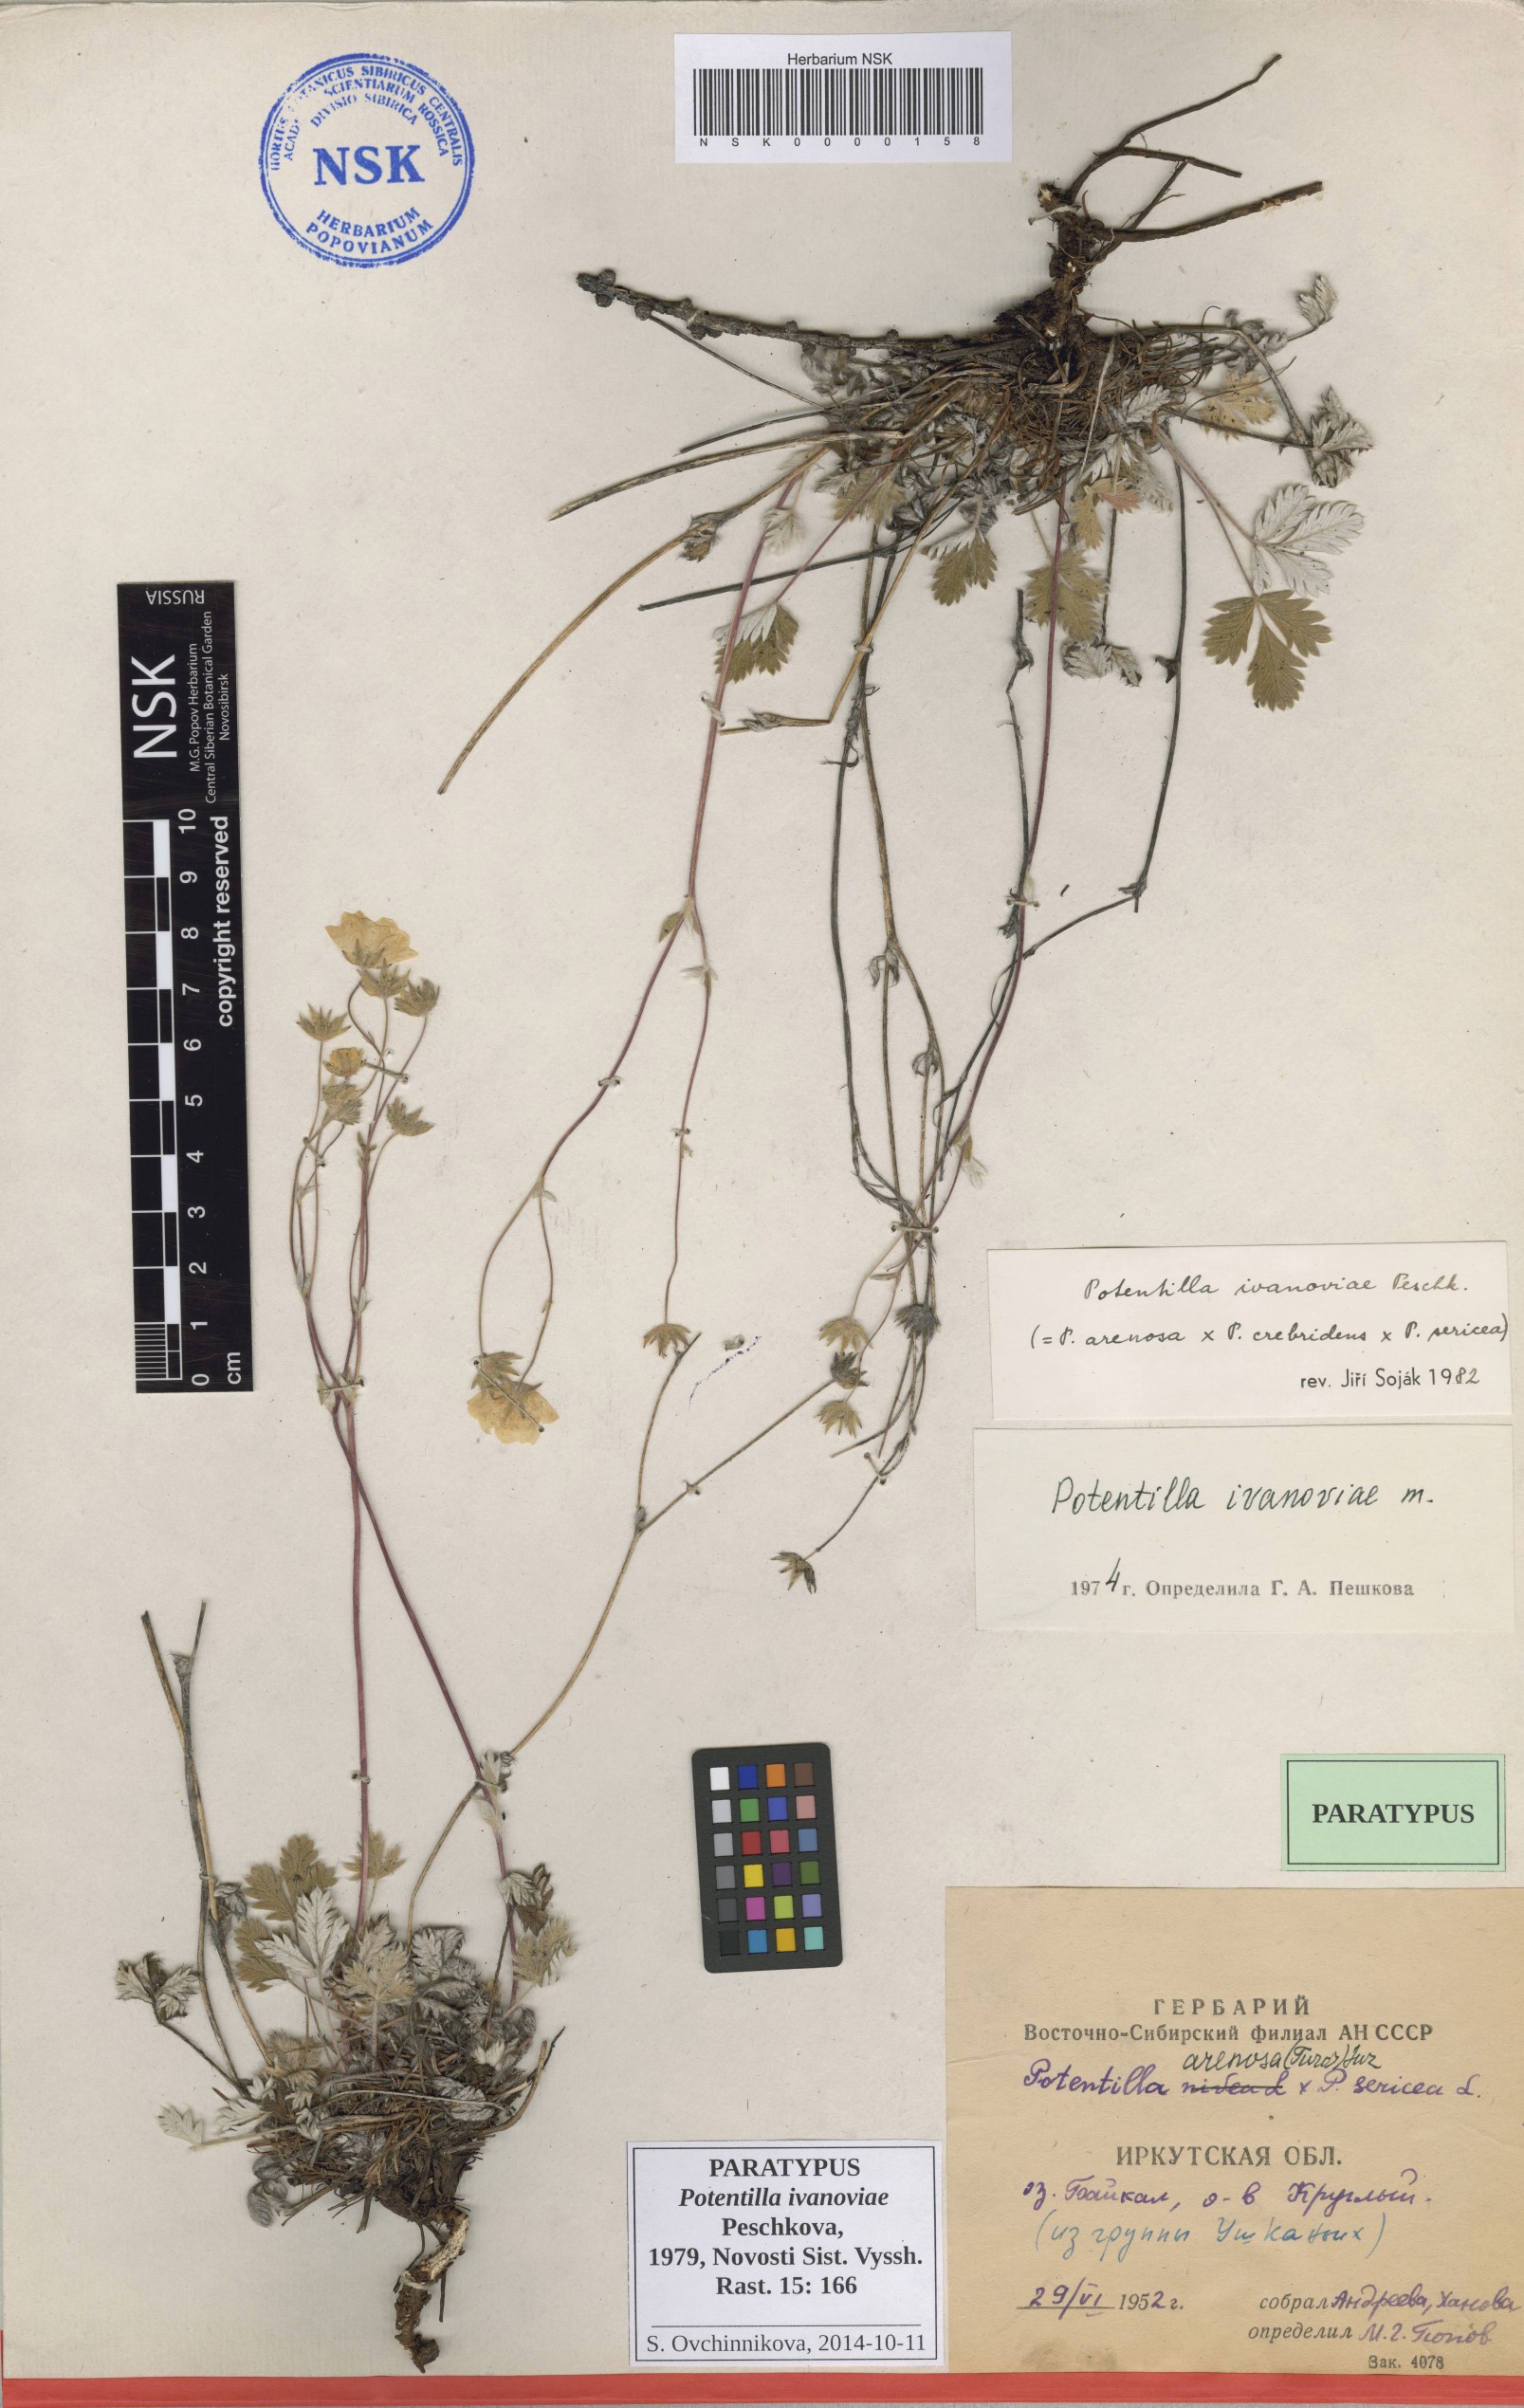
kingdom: Plantae
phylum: Tracheophyta
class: Magnoliopsida
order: Rosales
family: Rosaceae
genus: Potentilla
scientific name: Potentilla ivanoviae
